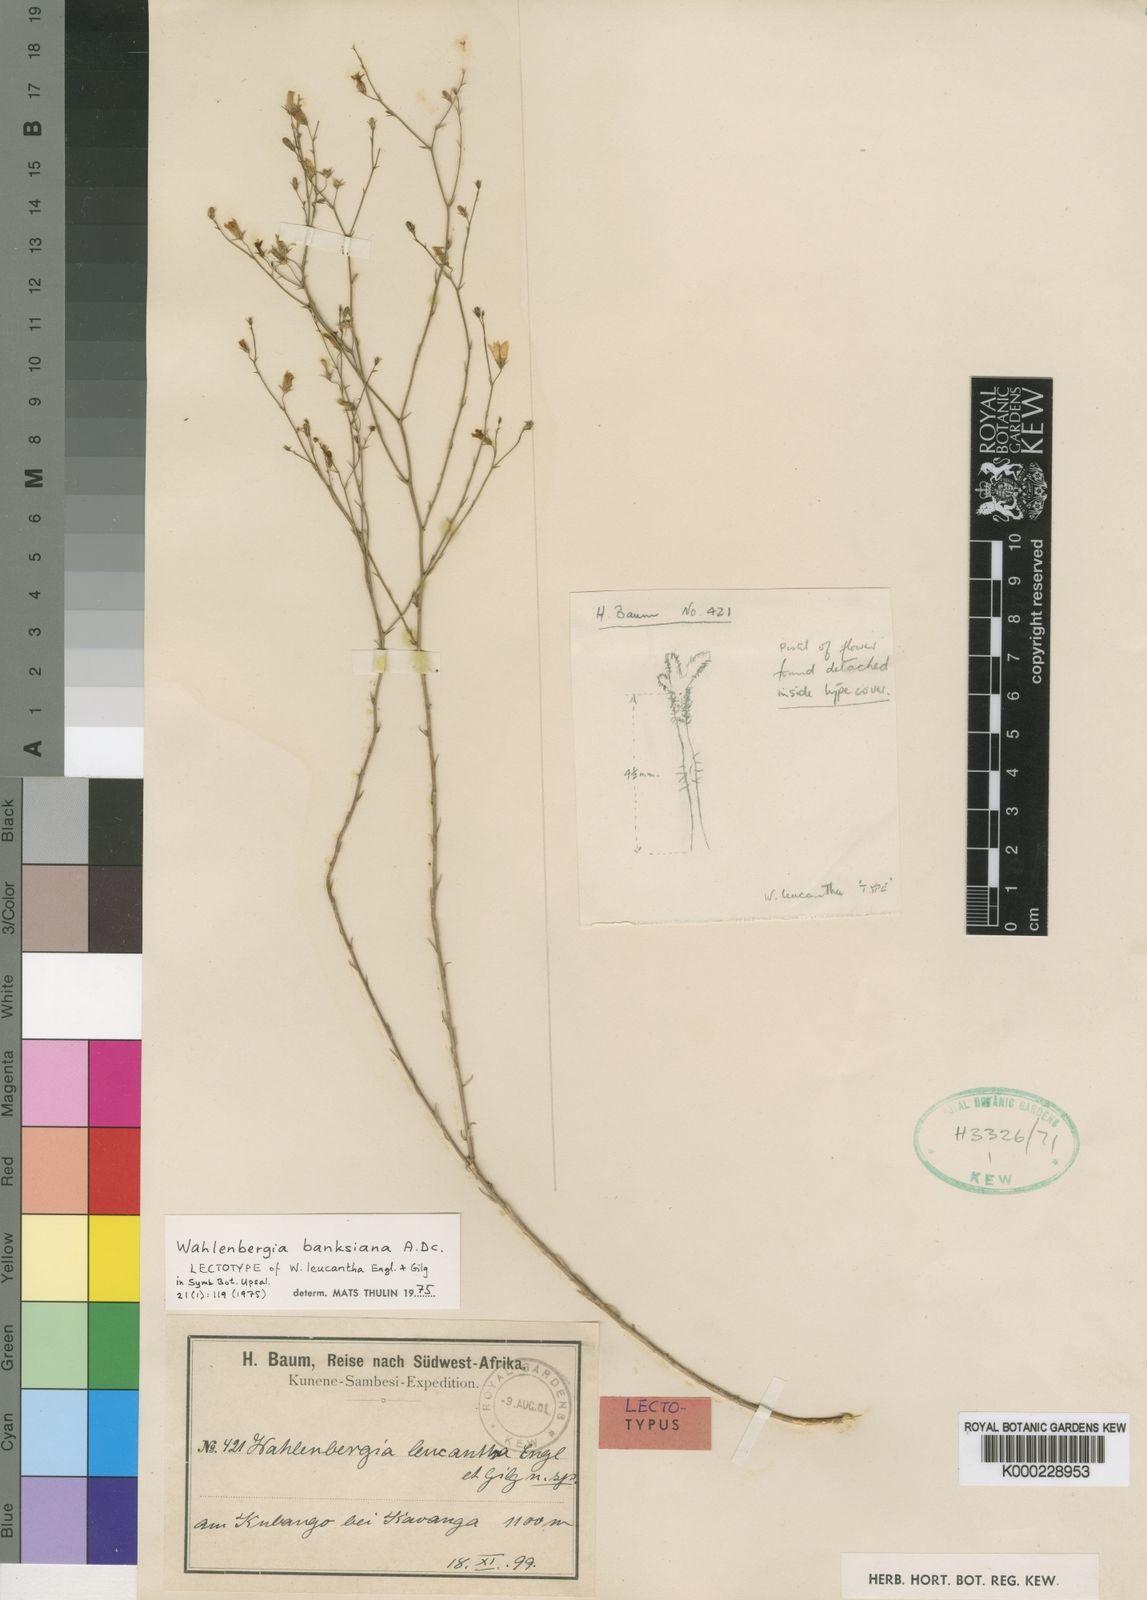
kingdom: Plantae
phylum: Tracheophyta
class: Magnoliopsida
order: Asterales
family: Campanulaceae
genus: Wahlenbergia
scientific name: Wahlenbergia banksiana
